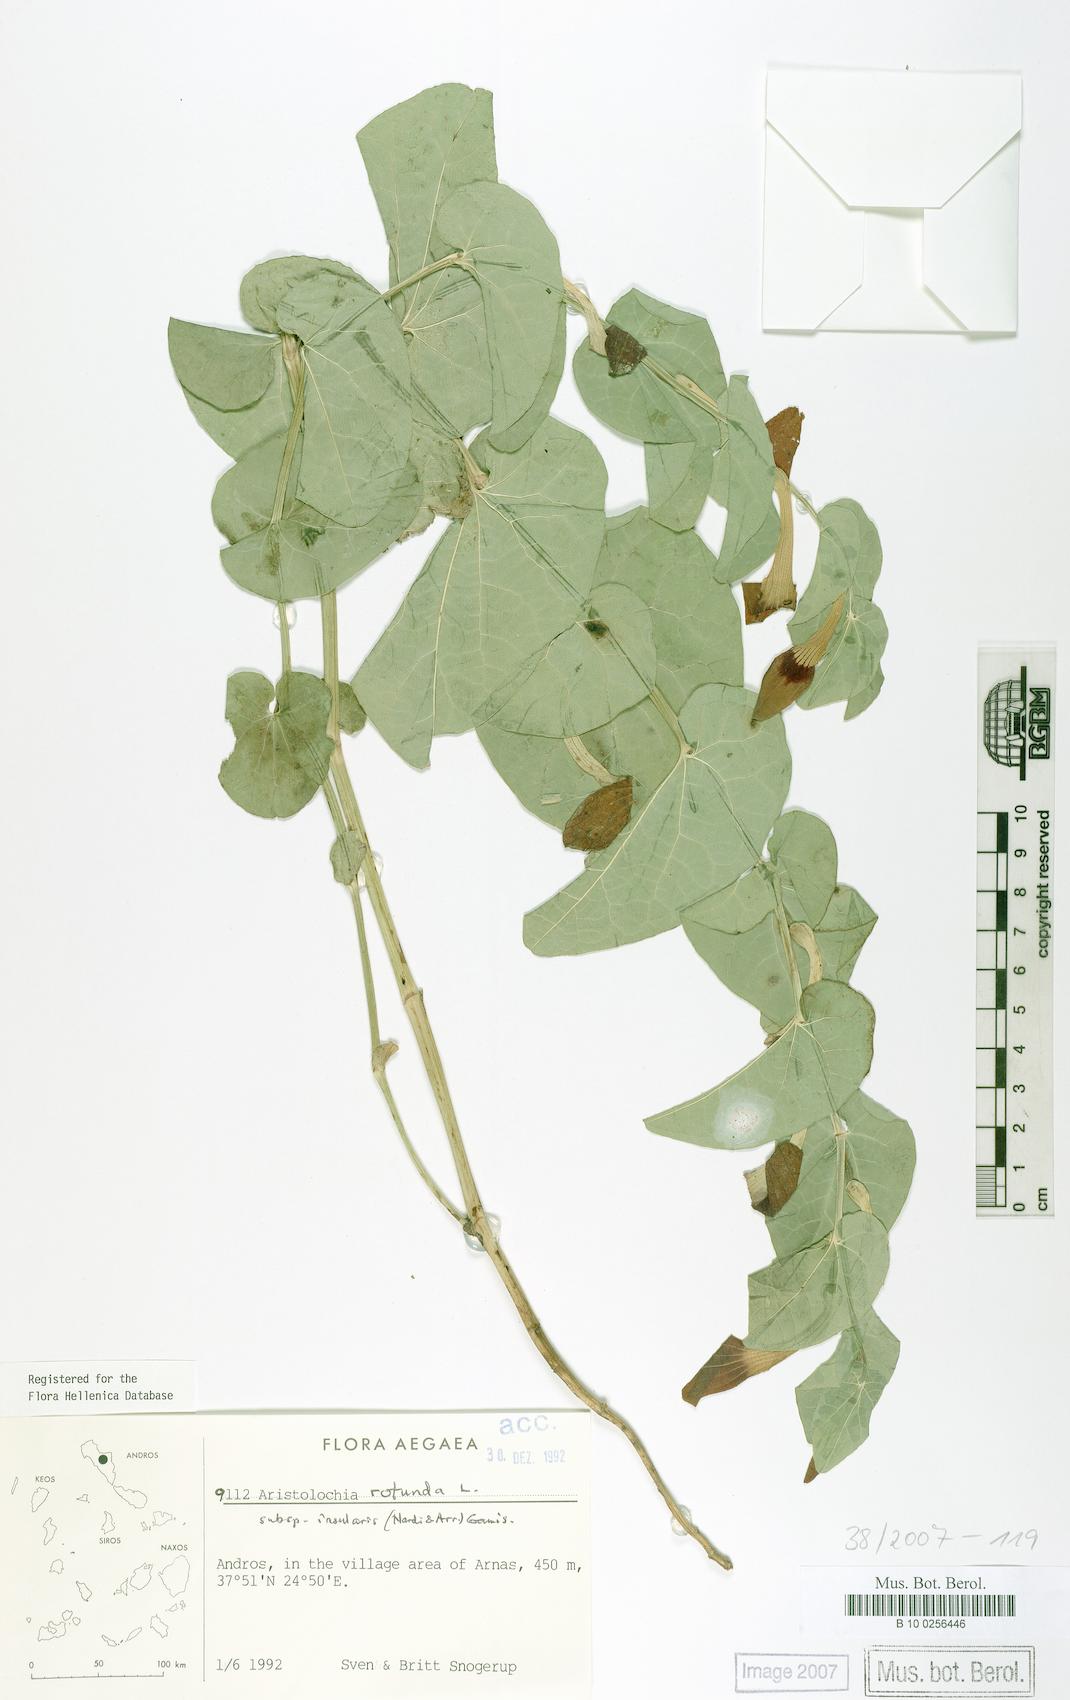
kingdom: Plantae
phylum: Tracheophyta
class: Magnoliopsida
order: Piperales
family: Aristolochiaceae
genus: Aristolochia
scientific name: Aristolochia rotunda
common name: Smearwort
